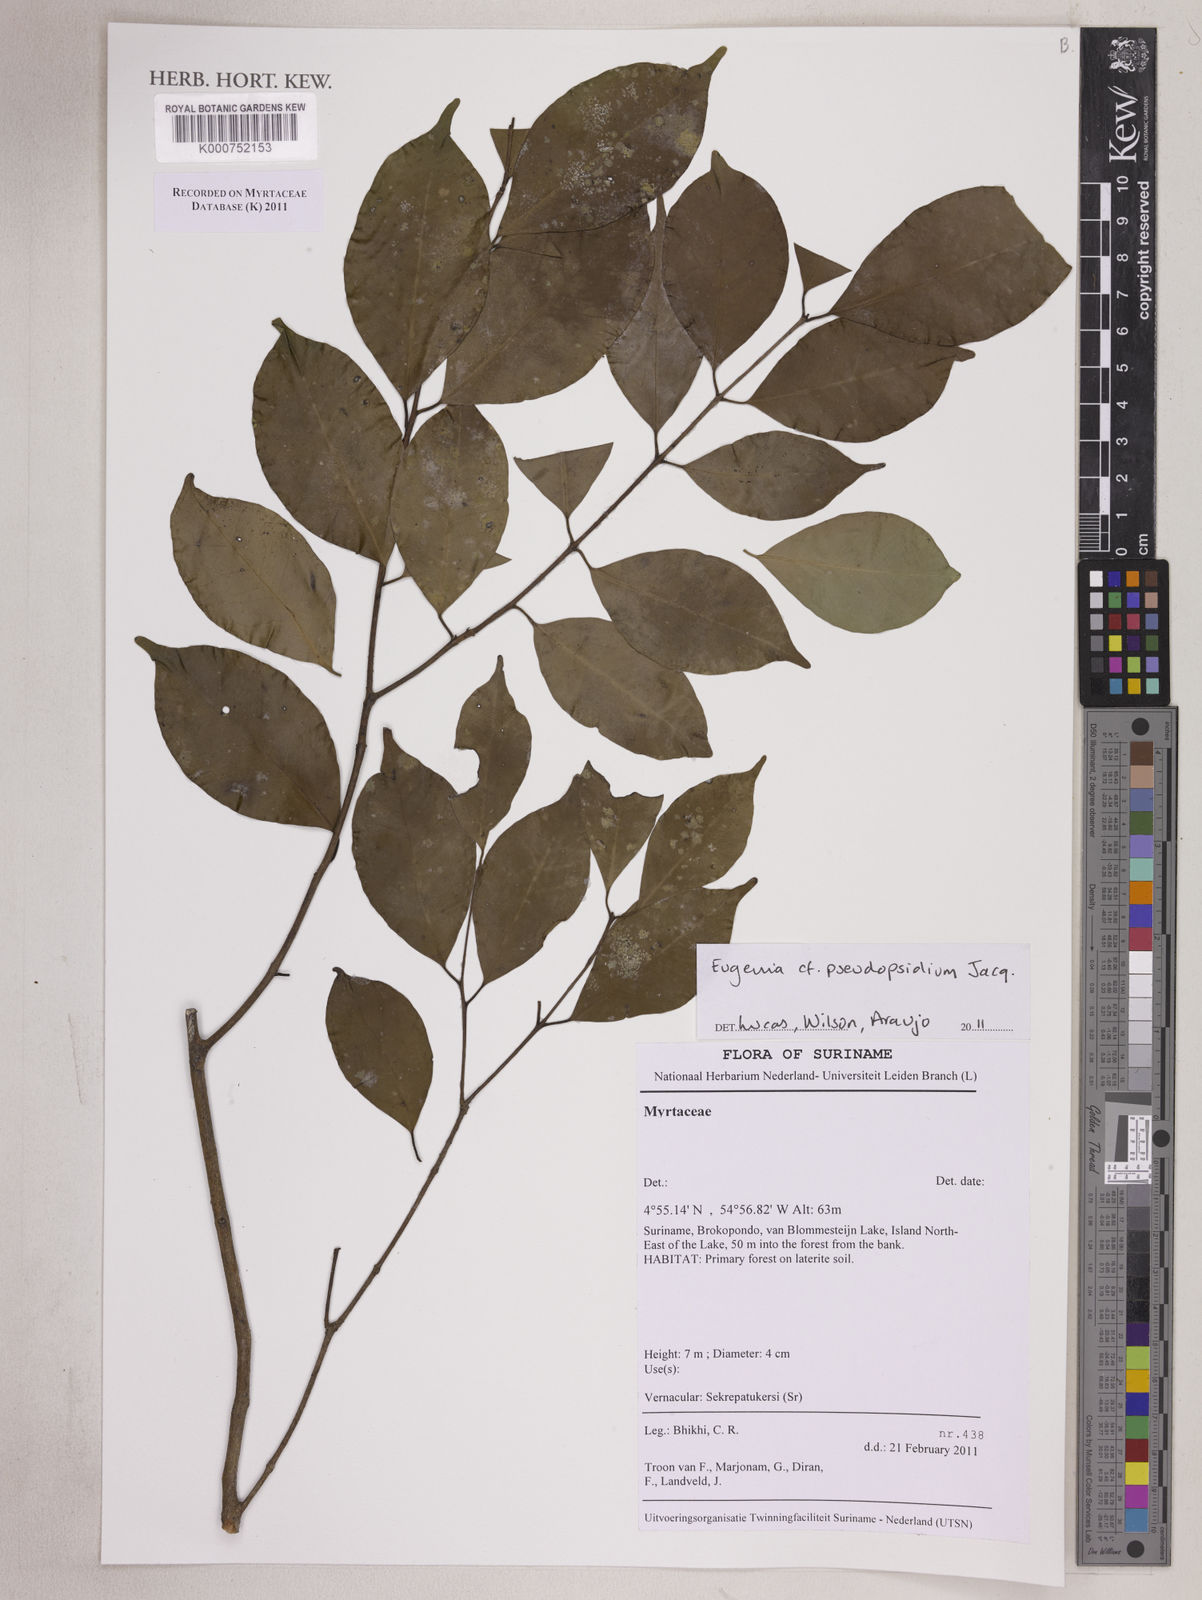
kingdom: Plantae
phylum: Tracheophyta
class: Magnoliopsida
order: Myrtales
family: Myrtaceae
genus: Eugenia
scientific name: Eugenia pseudopsidium
